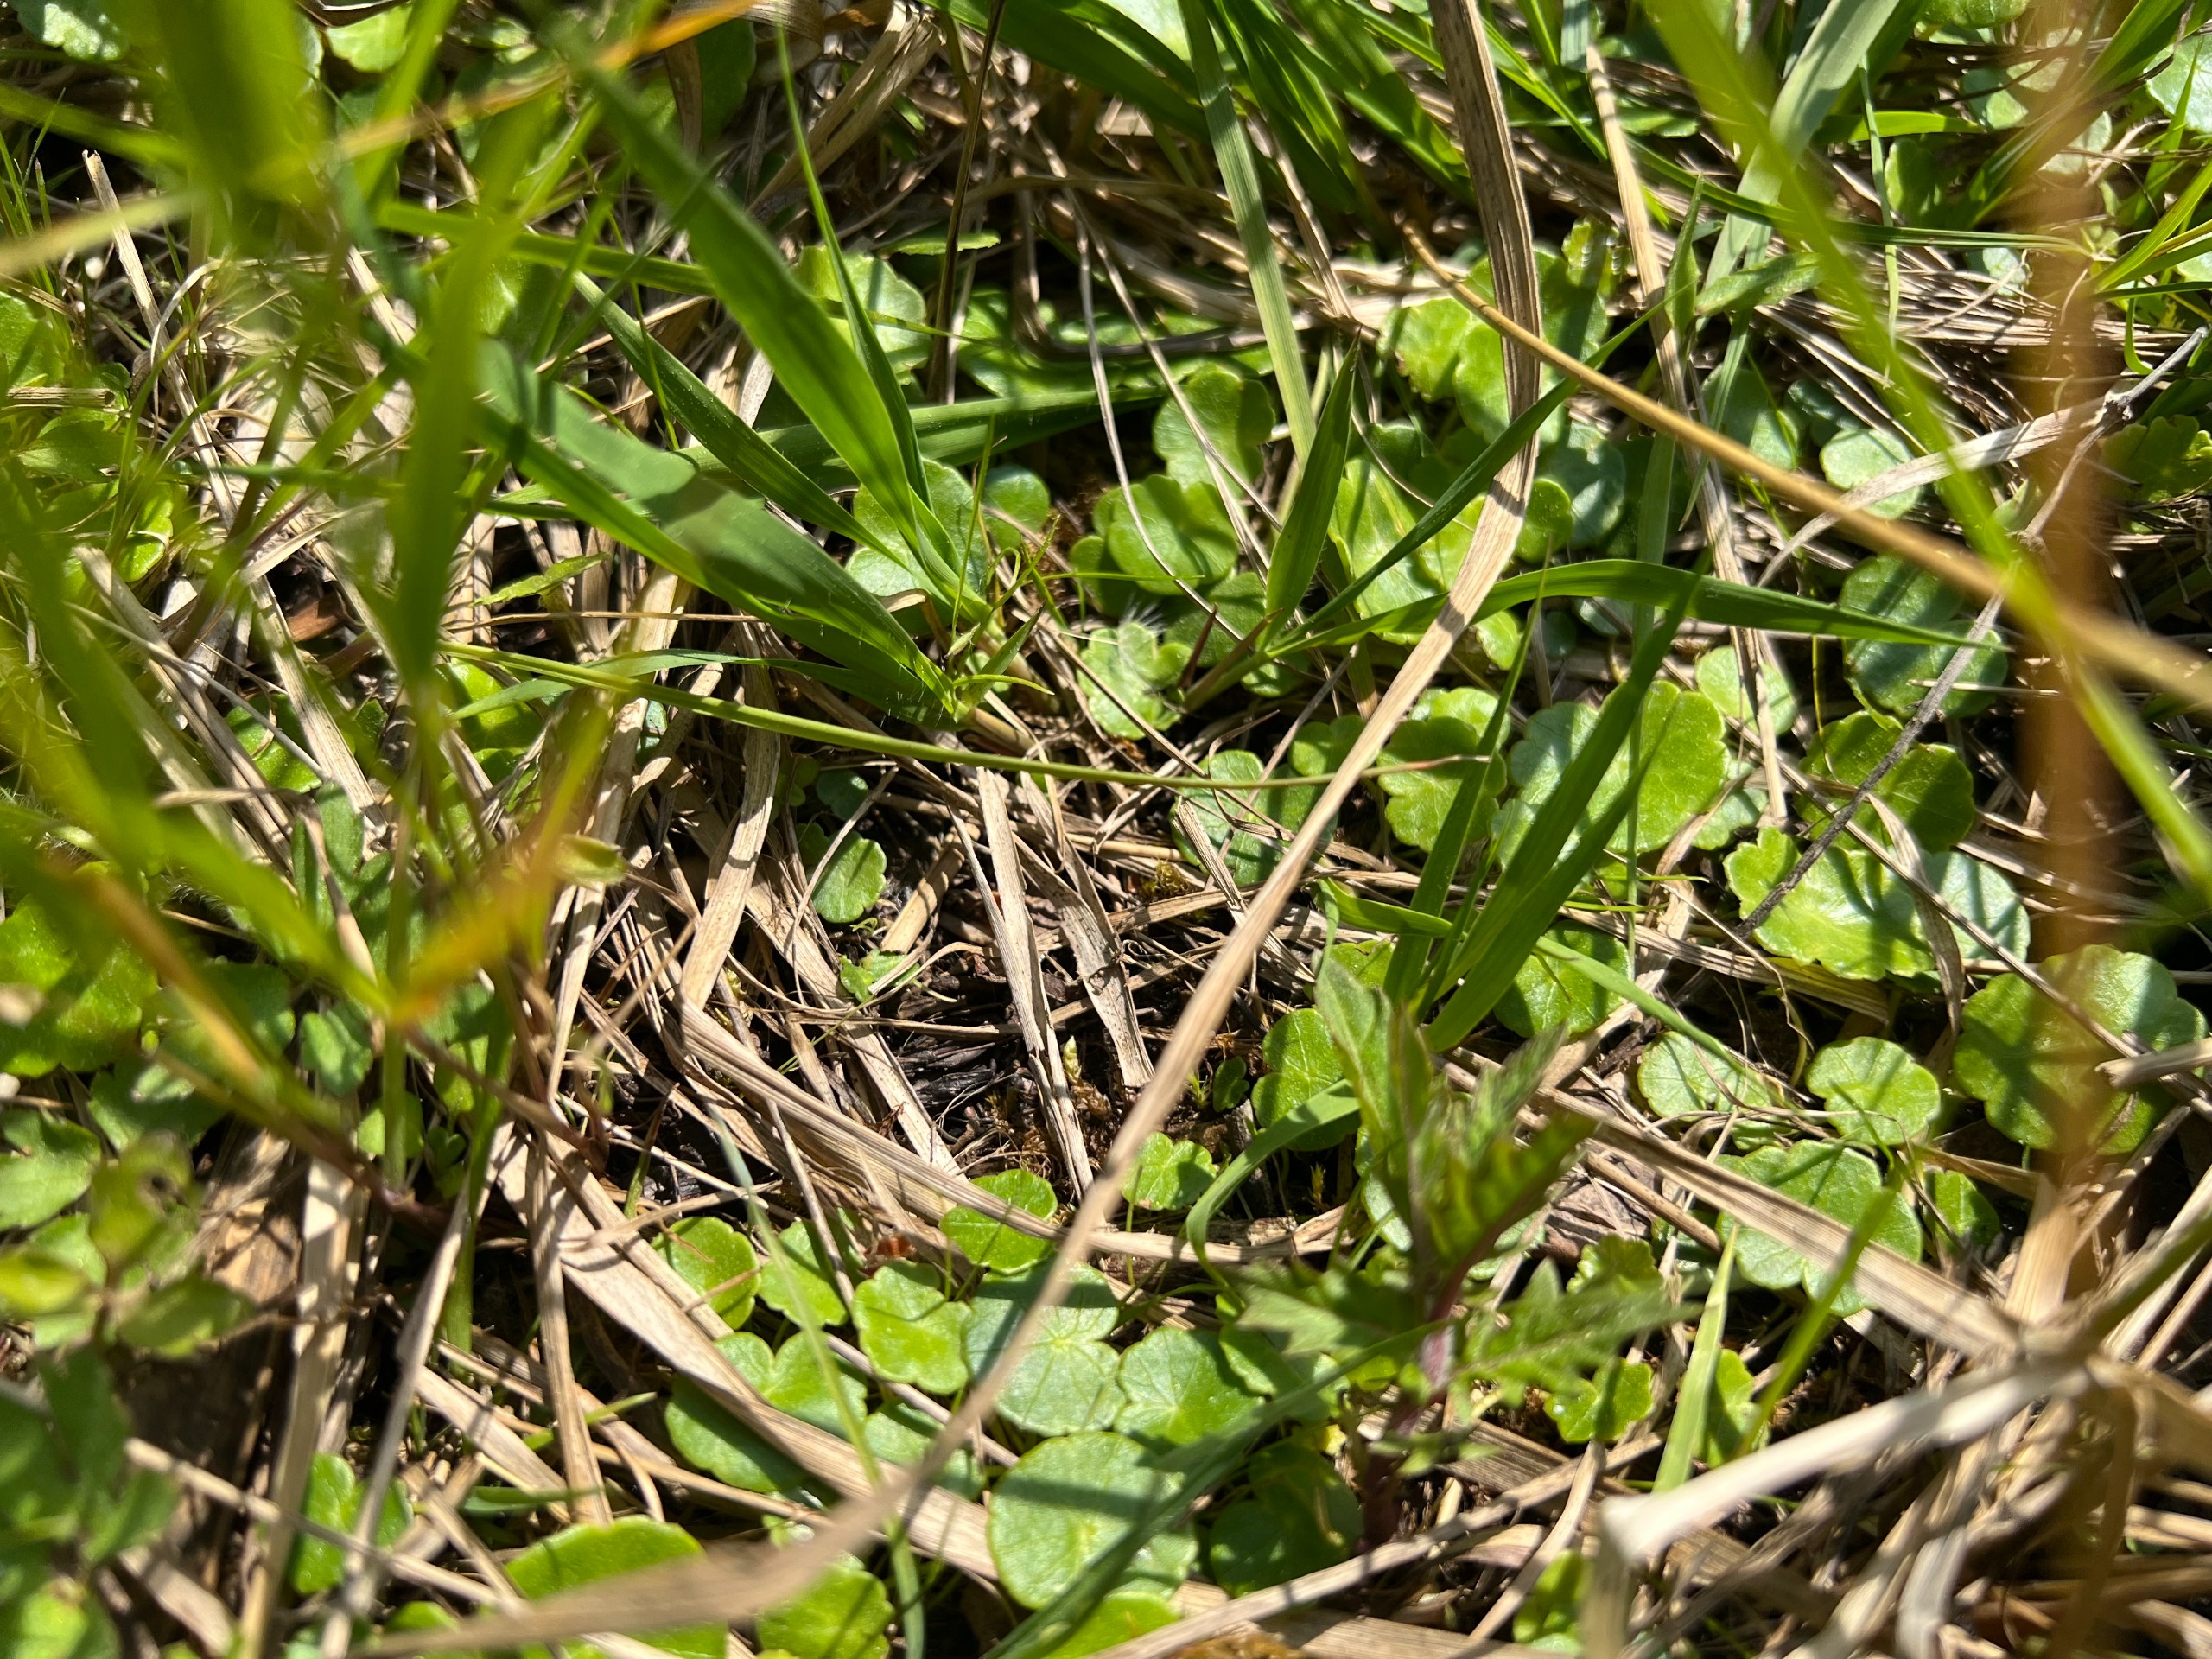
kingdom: Plantae
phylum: Tracheophyta
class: Magnoliopsida
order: Apiales
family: Araliaceae
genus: Hydrocotyle
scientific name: Hydrocotyle vulgaris
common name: Vandnavle
